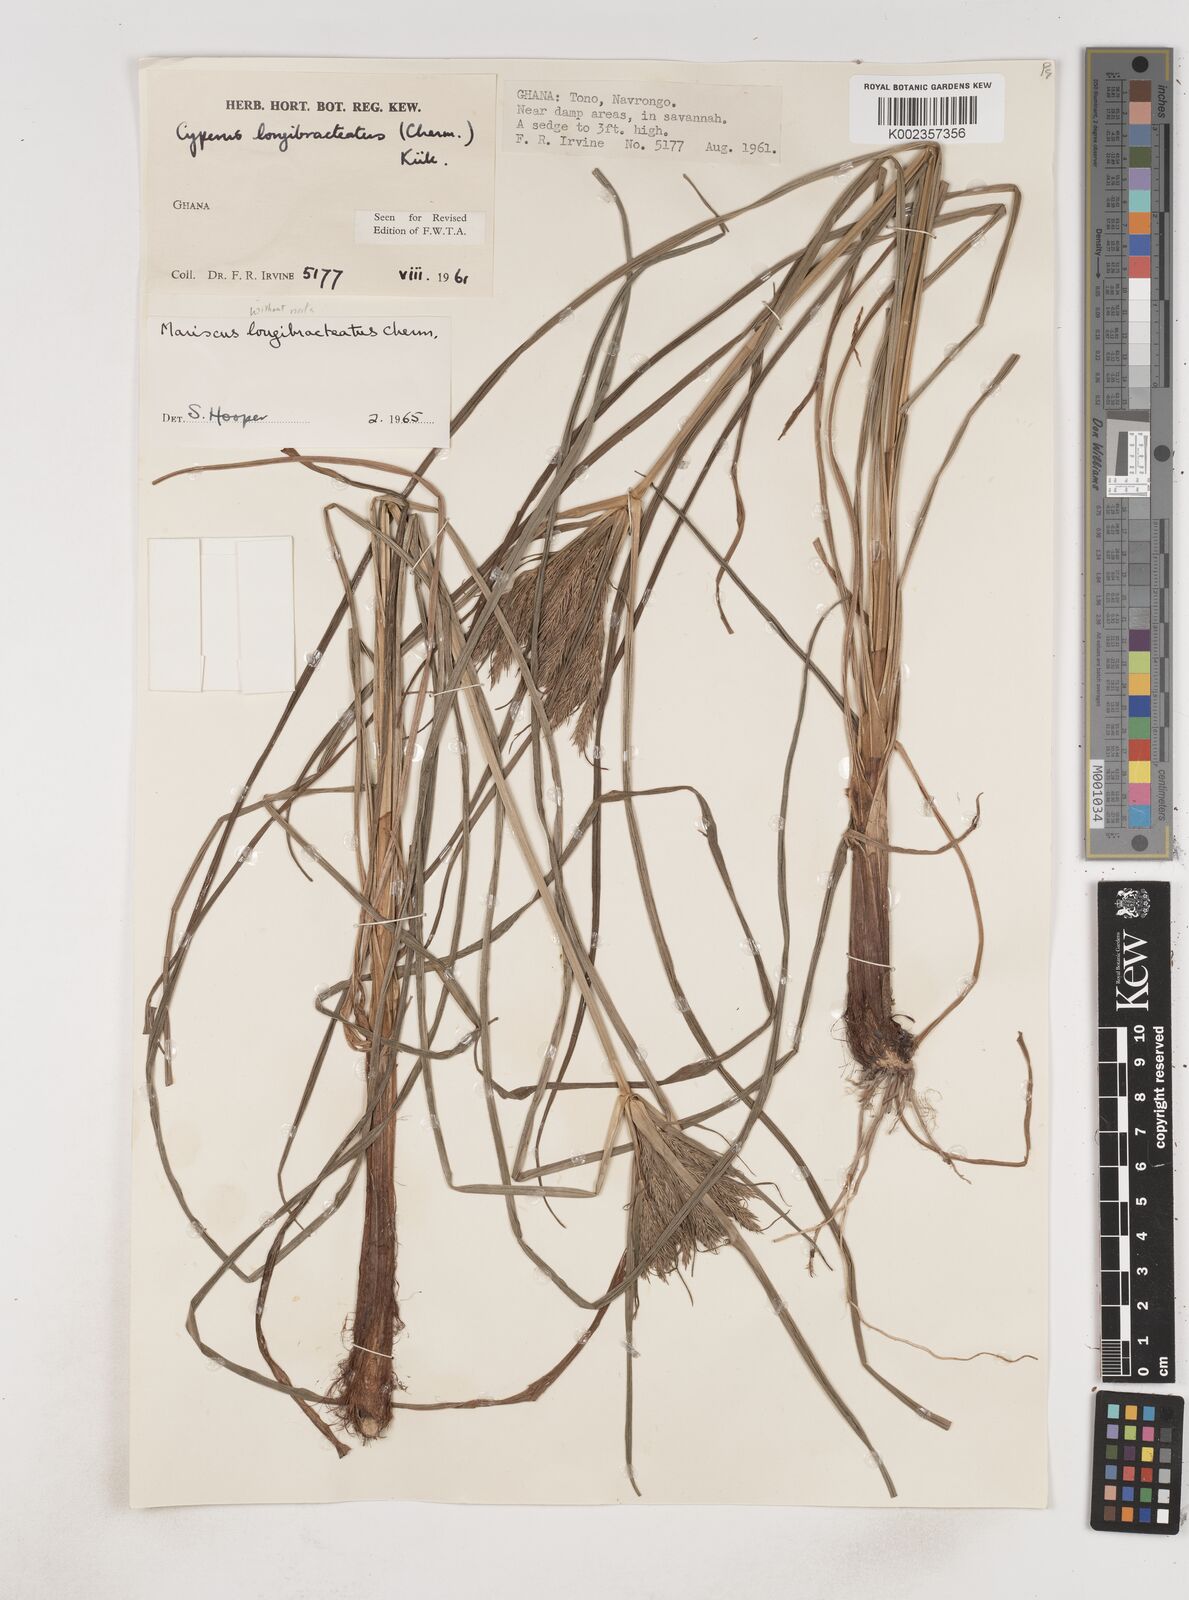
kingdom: Plantae
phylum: Tracheophyta
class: Liliopsida
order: Poales
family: Cyperaceae
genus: Cyperus
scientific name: Cyperus distans
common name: Slender cyperus
